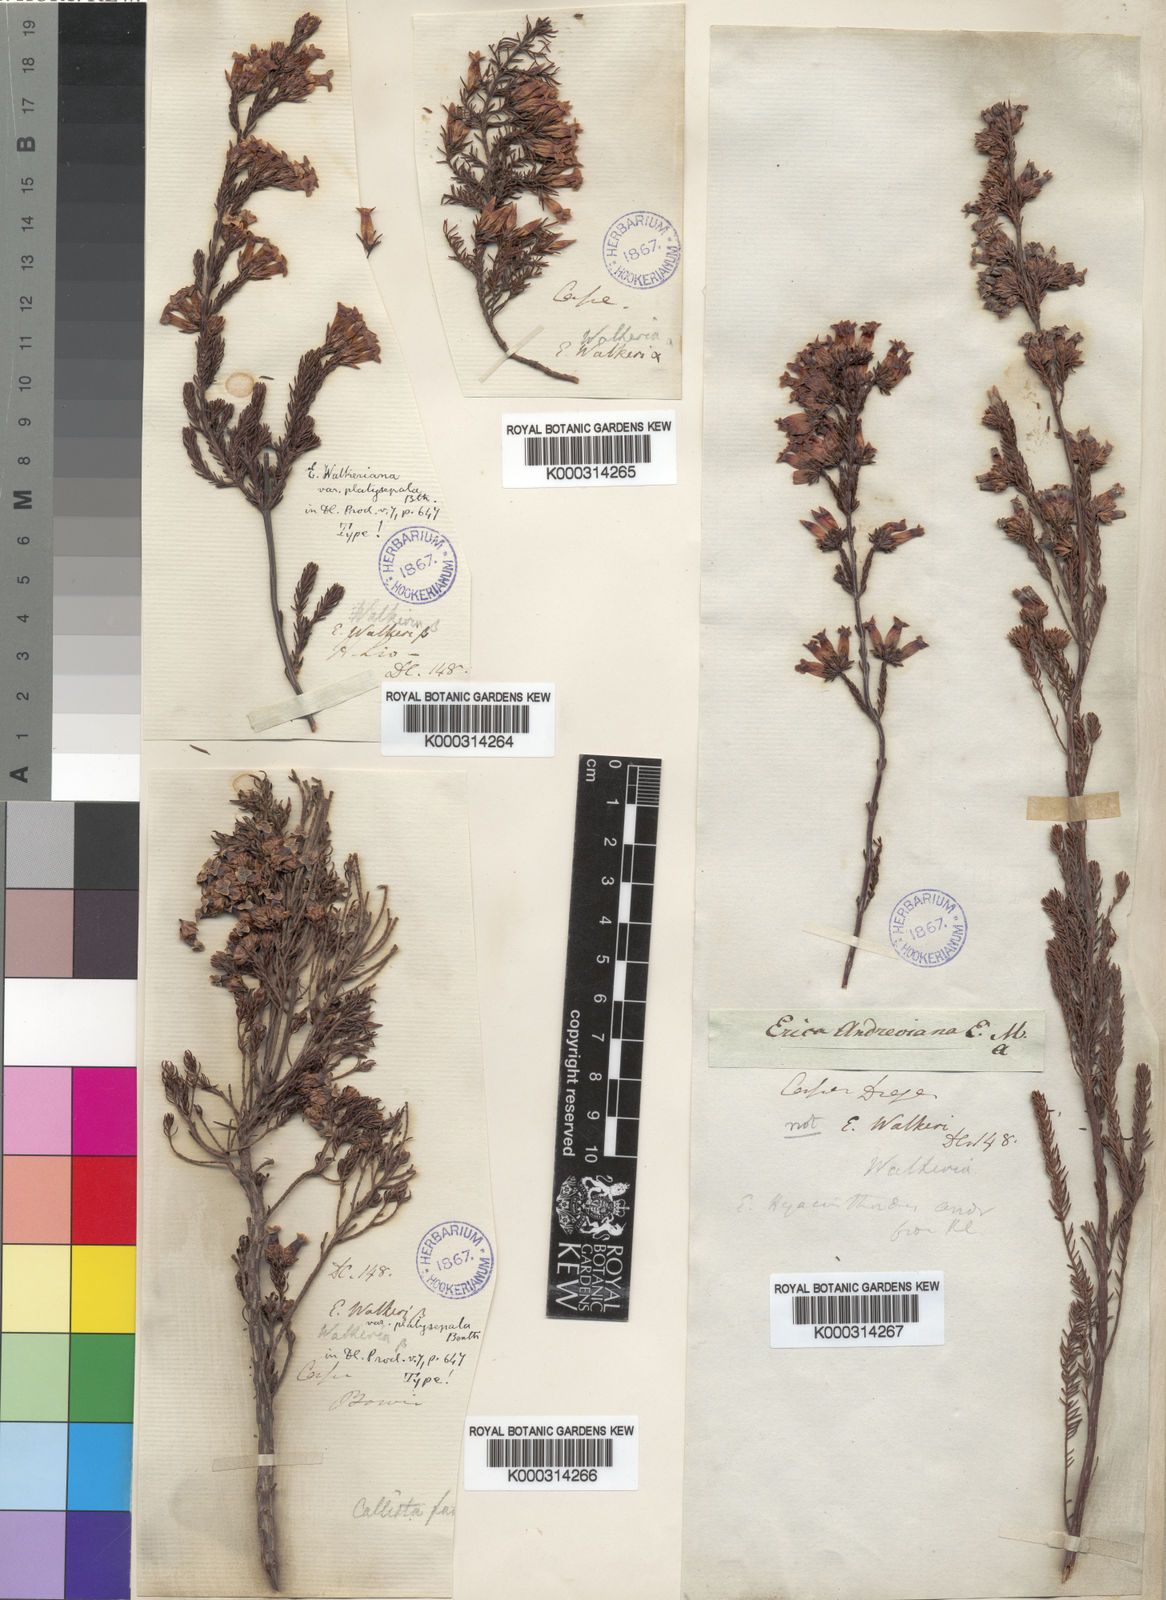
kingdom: Plantae
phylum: Tracheophyta
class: Magnoliopsida
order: Ericales
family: Ericaceae
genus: Erica
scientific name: Erica walkeria
